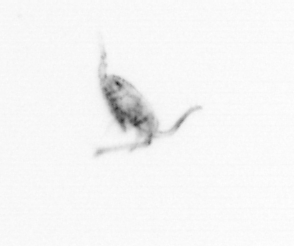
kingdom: Animalia
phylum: Arthropoda
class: Copepoda
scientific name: Copepoda
